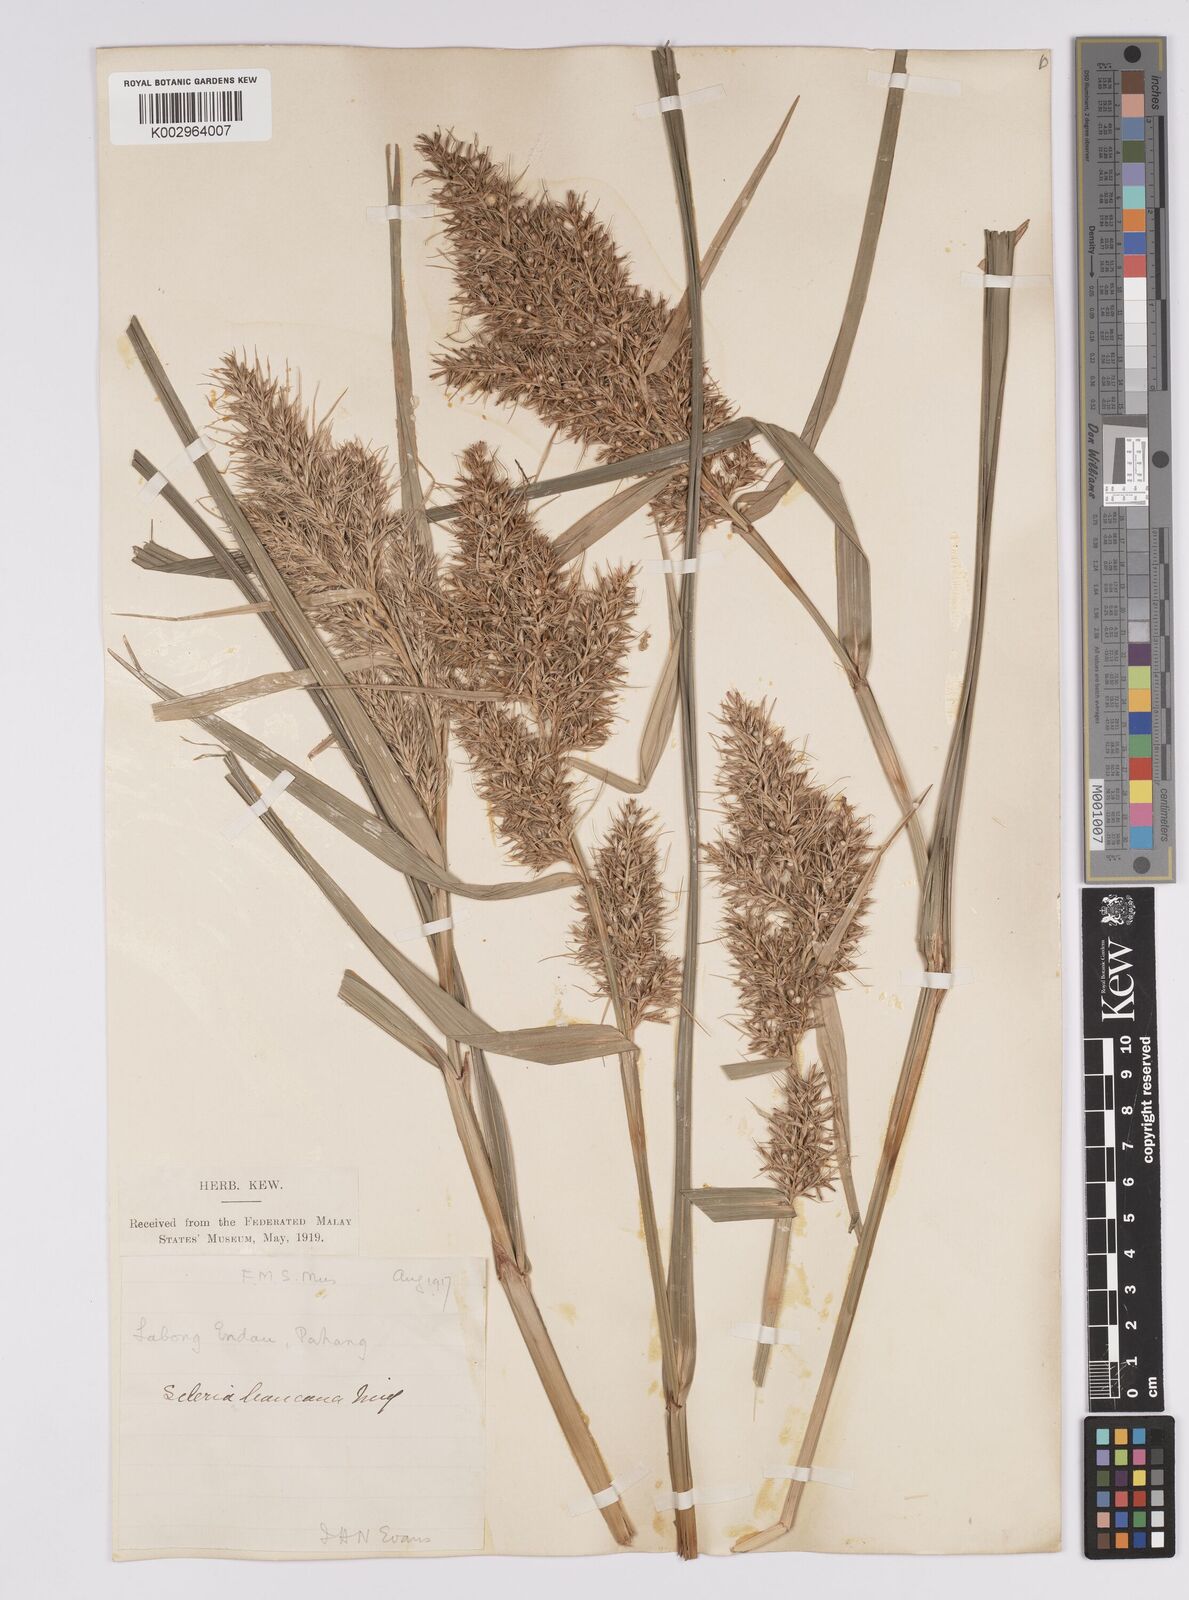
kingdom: Plantae
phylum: Tracheophyta
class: Liliopsida
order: Poales
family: Cyperaceae
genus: Scleria
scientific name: Scleria ciliaris
